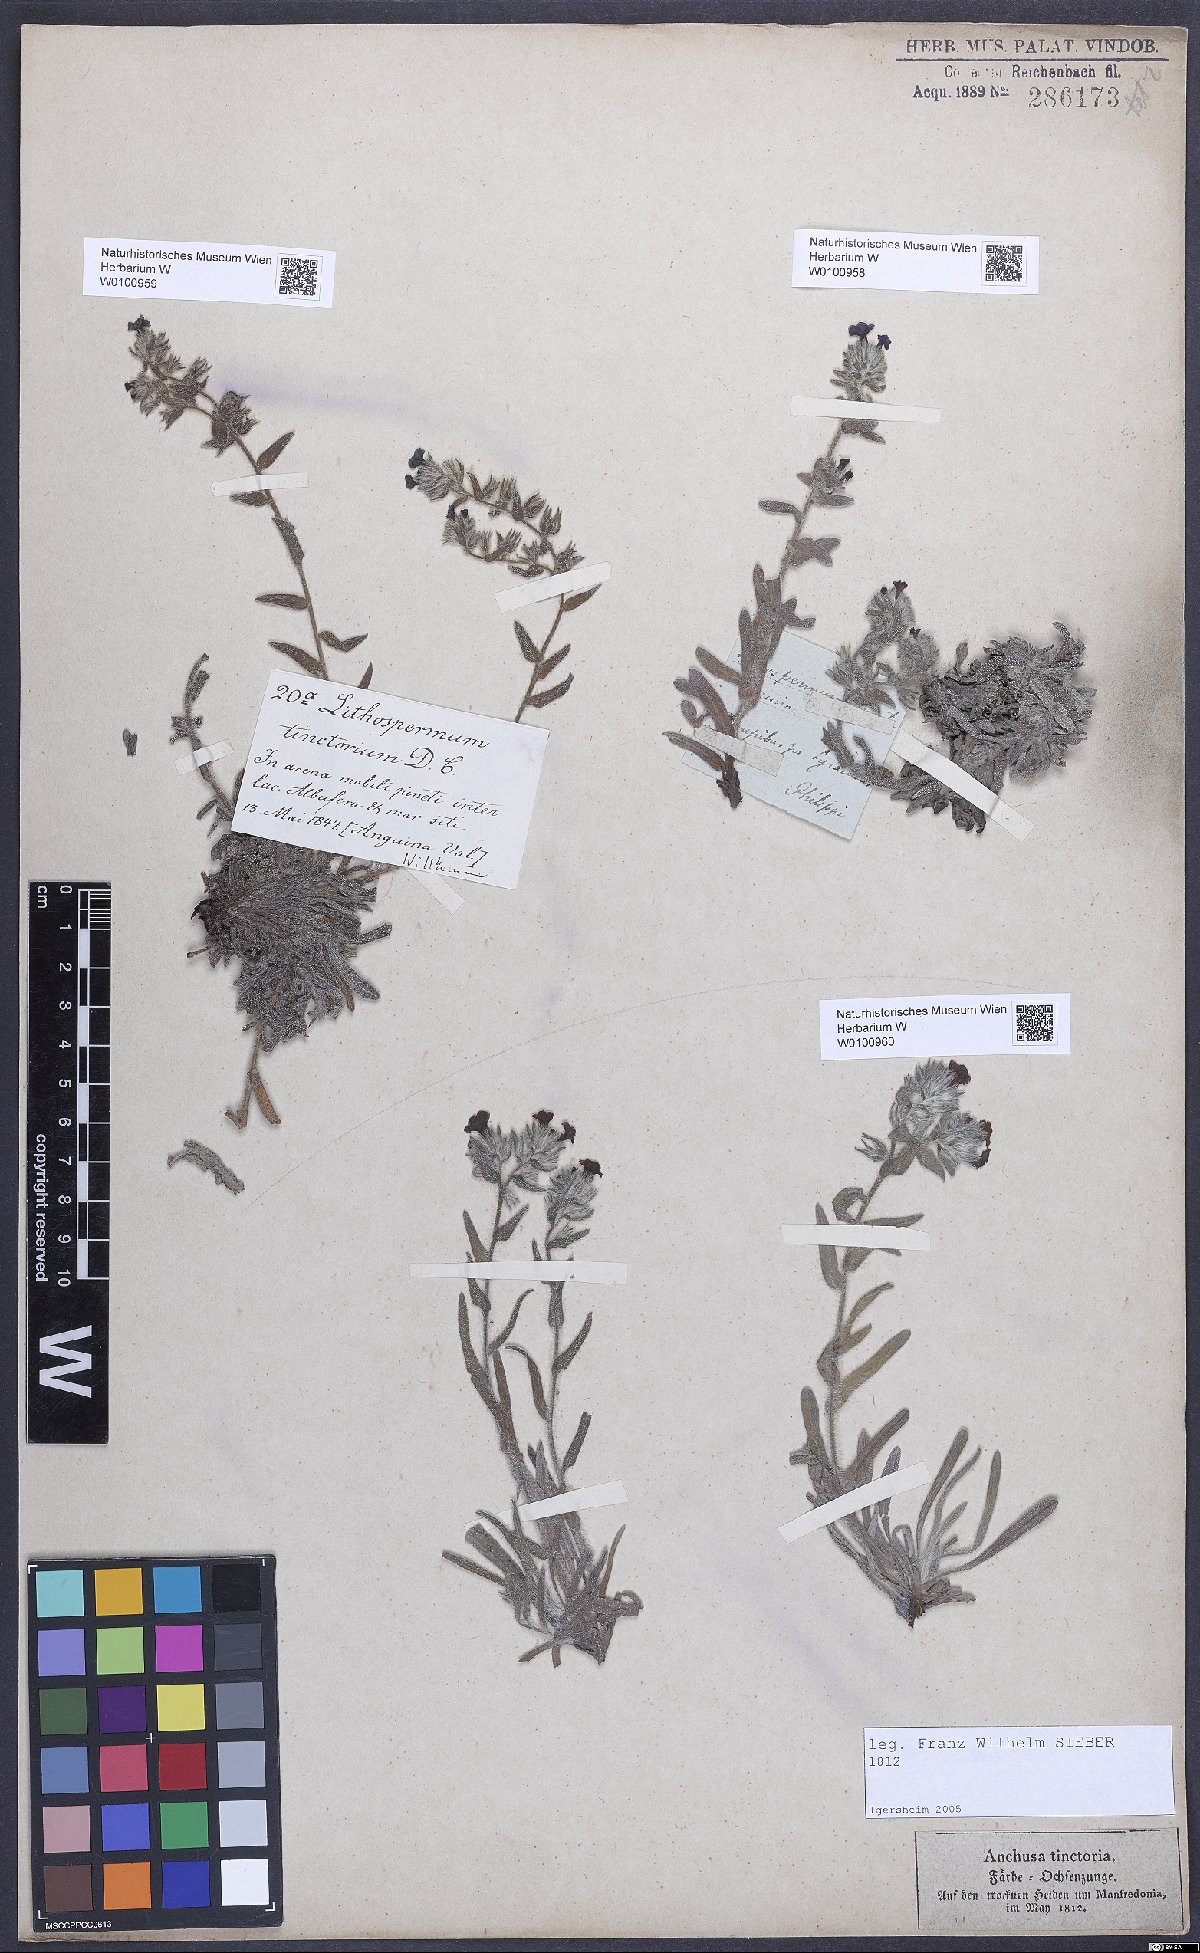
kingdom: Plantae
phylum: Tracheophyta
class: Magnoliopsida
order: Boraginales
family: Boraginaceae
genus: Alkanna
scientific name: Alkanna tinctoria
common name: Dyer's-alkanet
